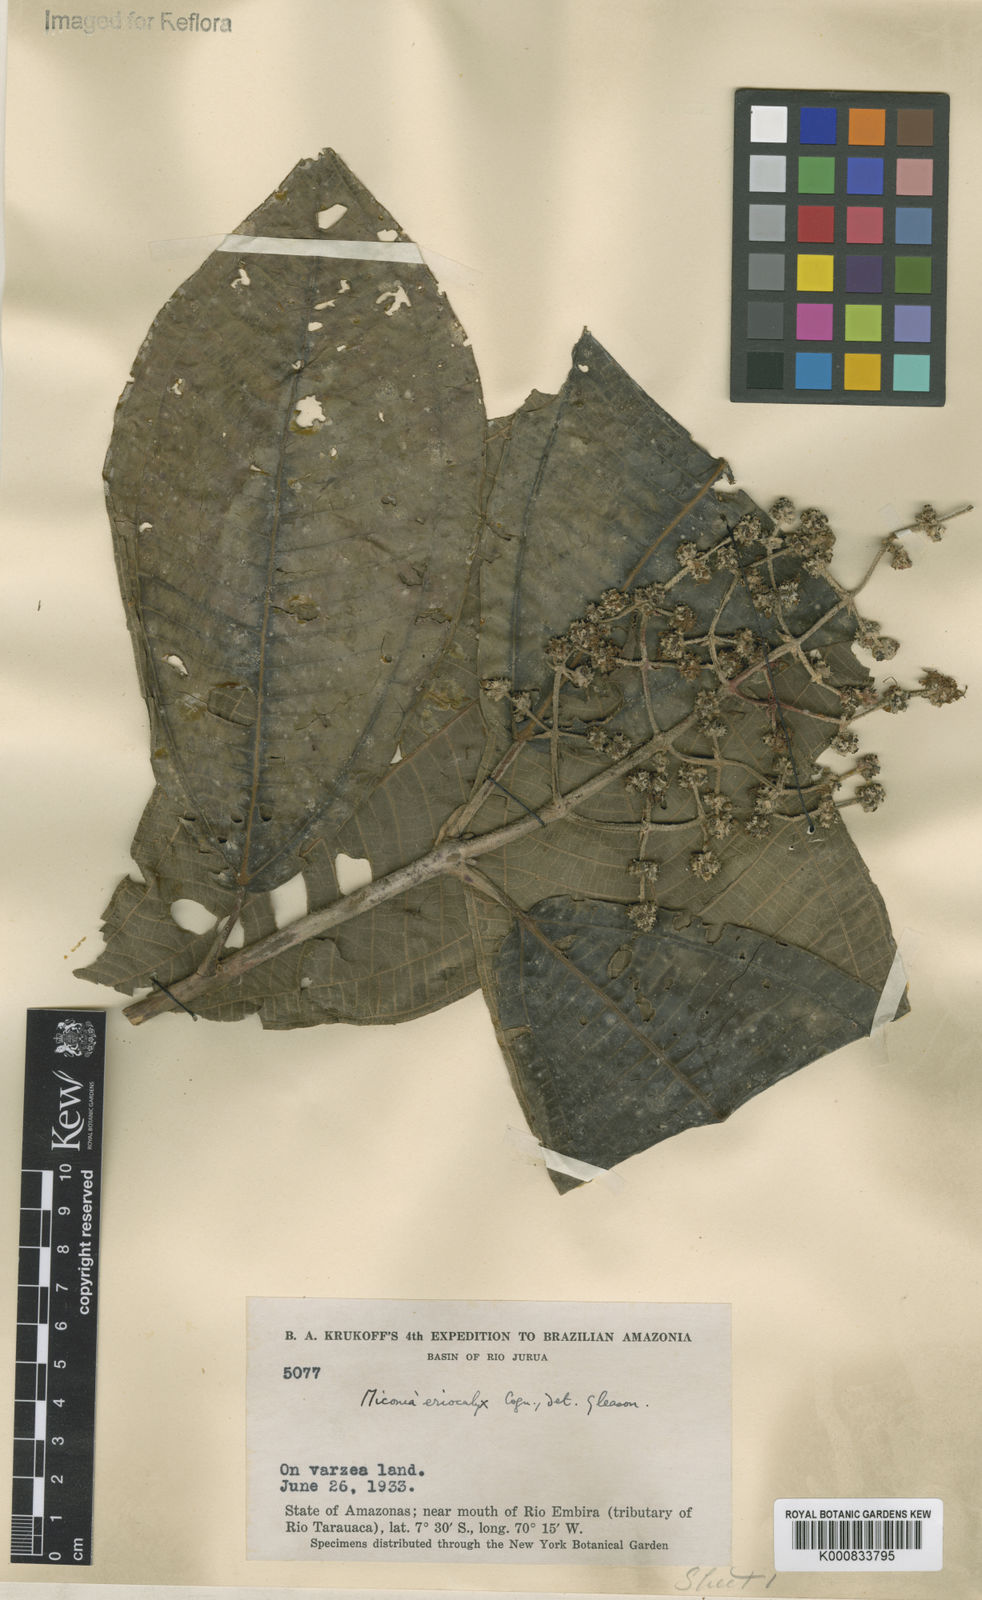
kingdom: Plantae
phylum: Tracheophyta
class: Magnoliopsida
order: Myrtales
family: Melastomataceae
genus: Miconia
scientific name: Miconia eriocalyx
